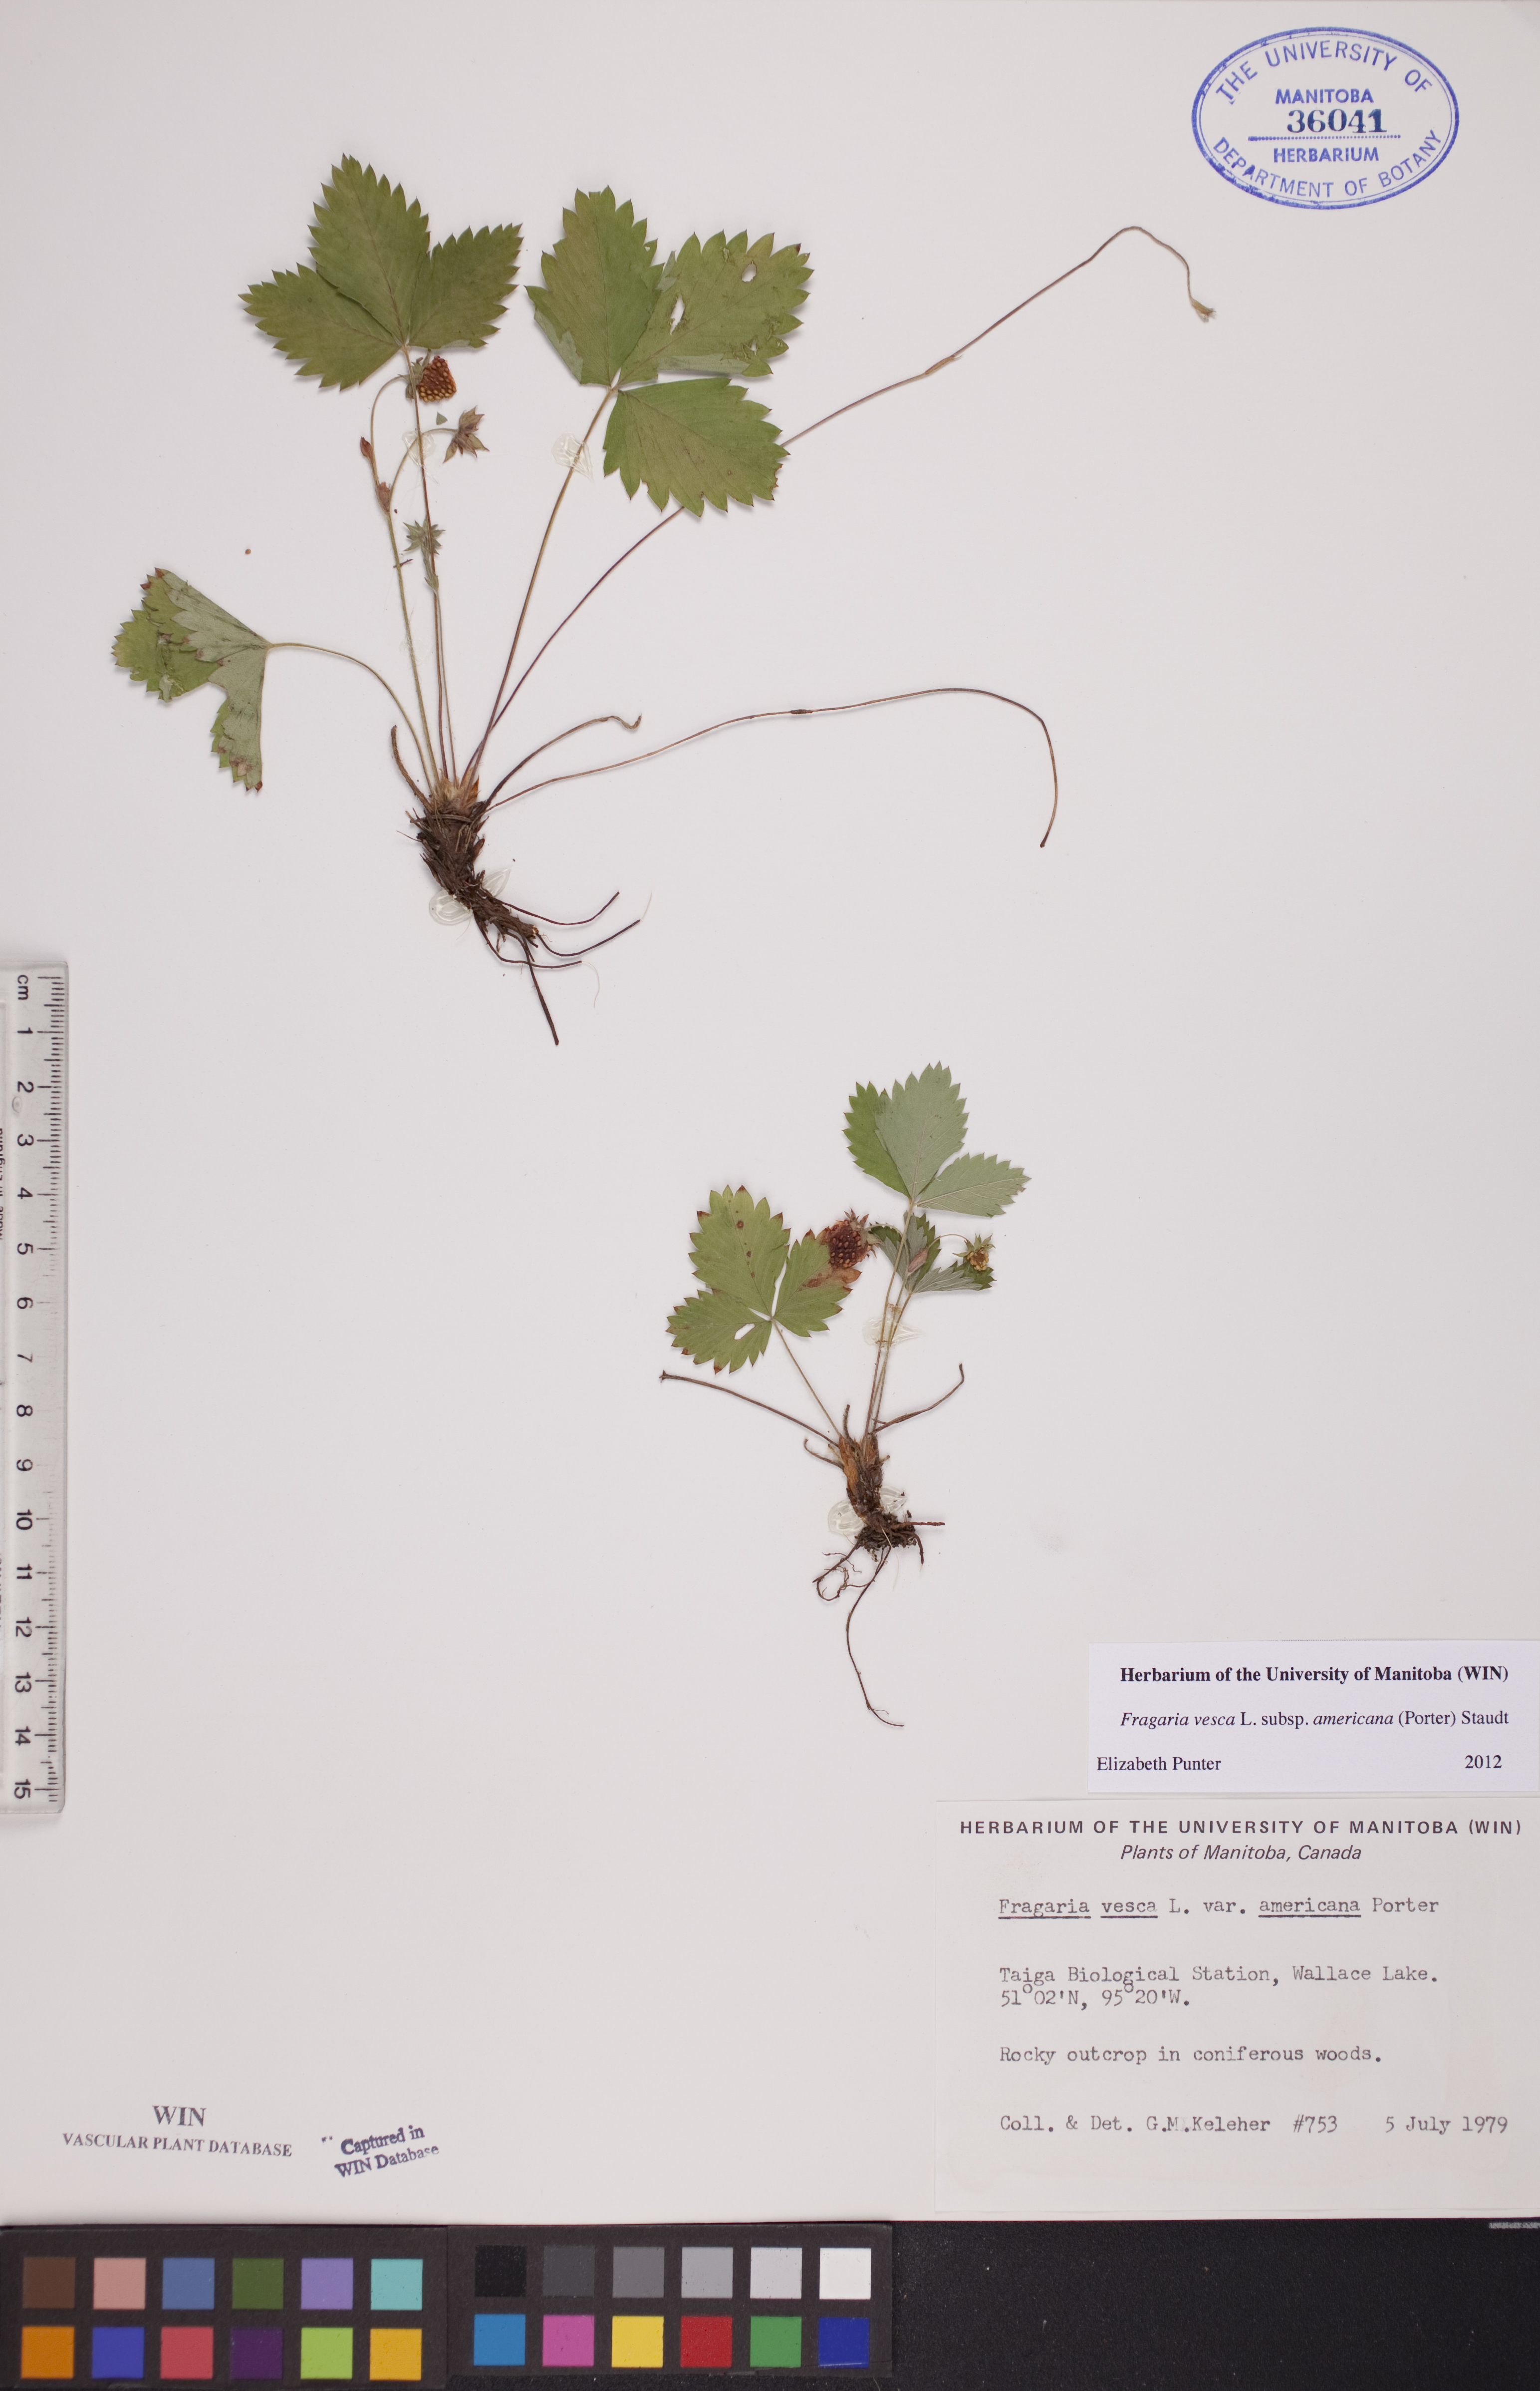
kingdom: Plantae
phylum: Tracheophyta
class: Magnoliopsida
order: Rosales
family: Rosaceae
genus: Fragaria
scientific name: Fragaria vesca
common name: Wild strawberry
